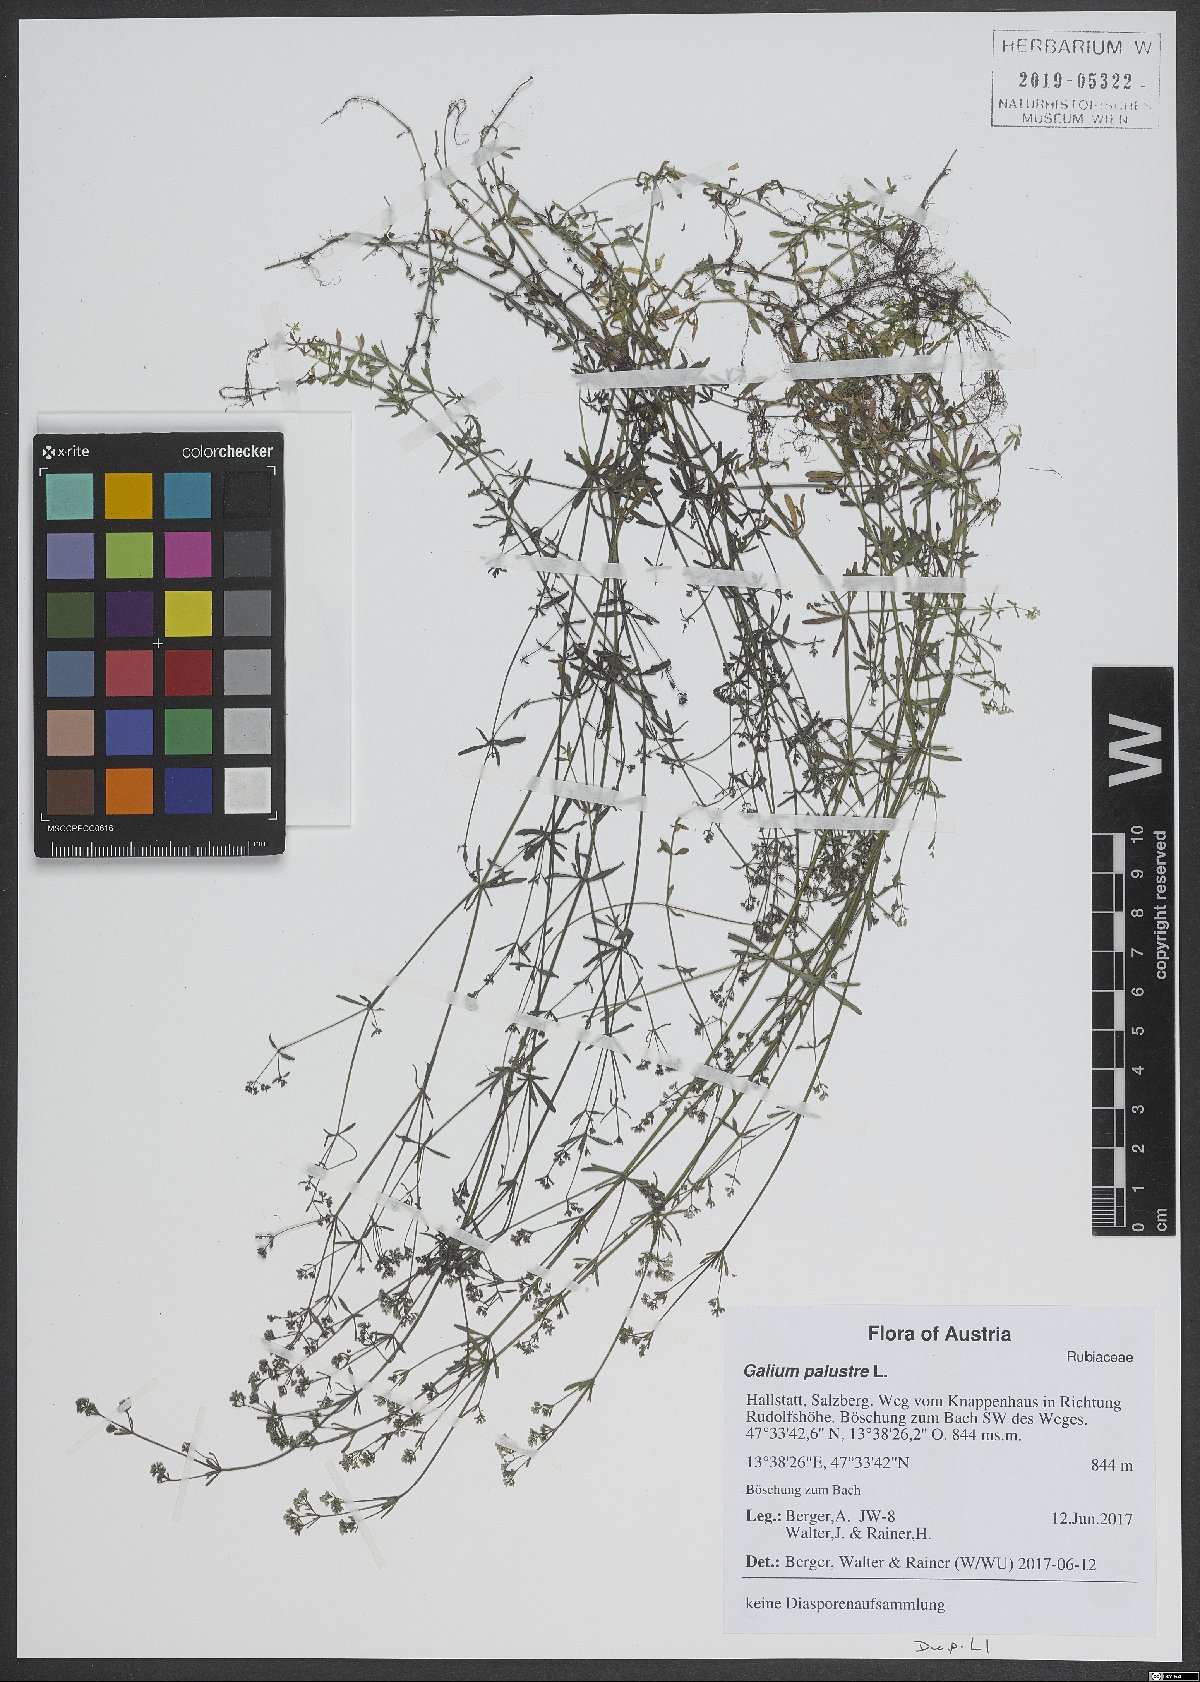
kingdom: Plantae
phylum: Tracheophyta
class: Magnoliopsida
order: Gentianales
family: Rubiaceae
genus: Galium
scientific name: Galium palustre
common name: Common marsh-bedstraw
